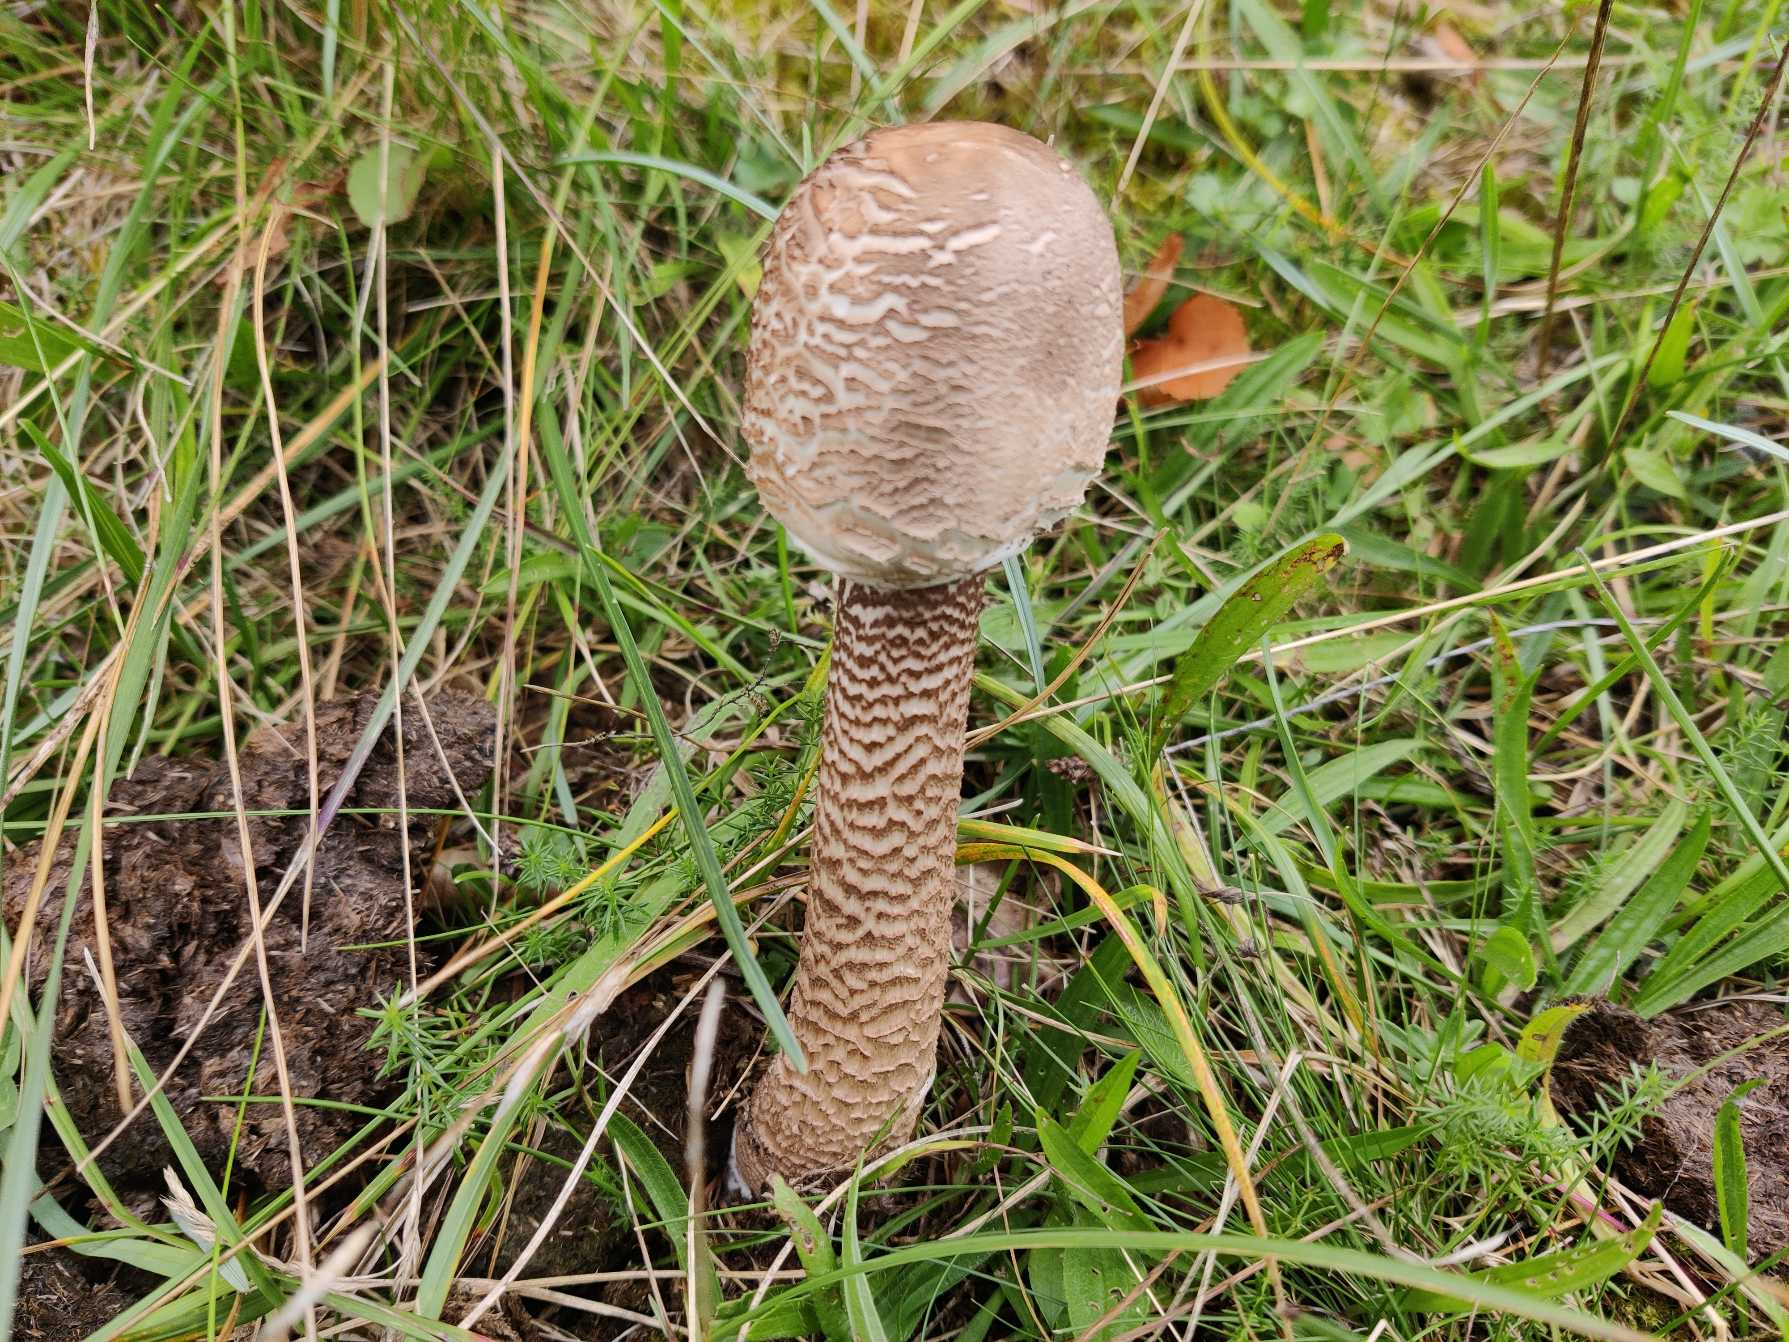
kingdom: Fungi
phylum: Basidiomycota
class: Agaricomycetes
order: Agaricales
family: Agaricaceae
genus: Macrolepiota
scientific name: Macrolepiota procera
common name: Stor kæmpeparasolhat
